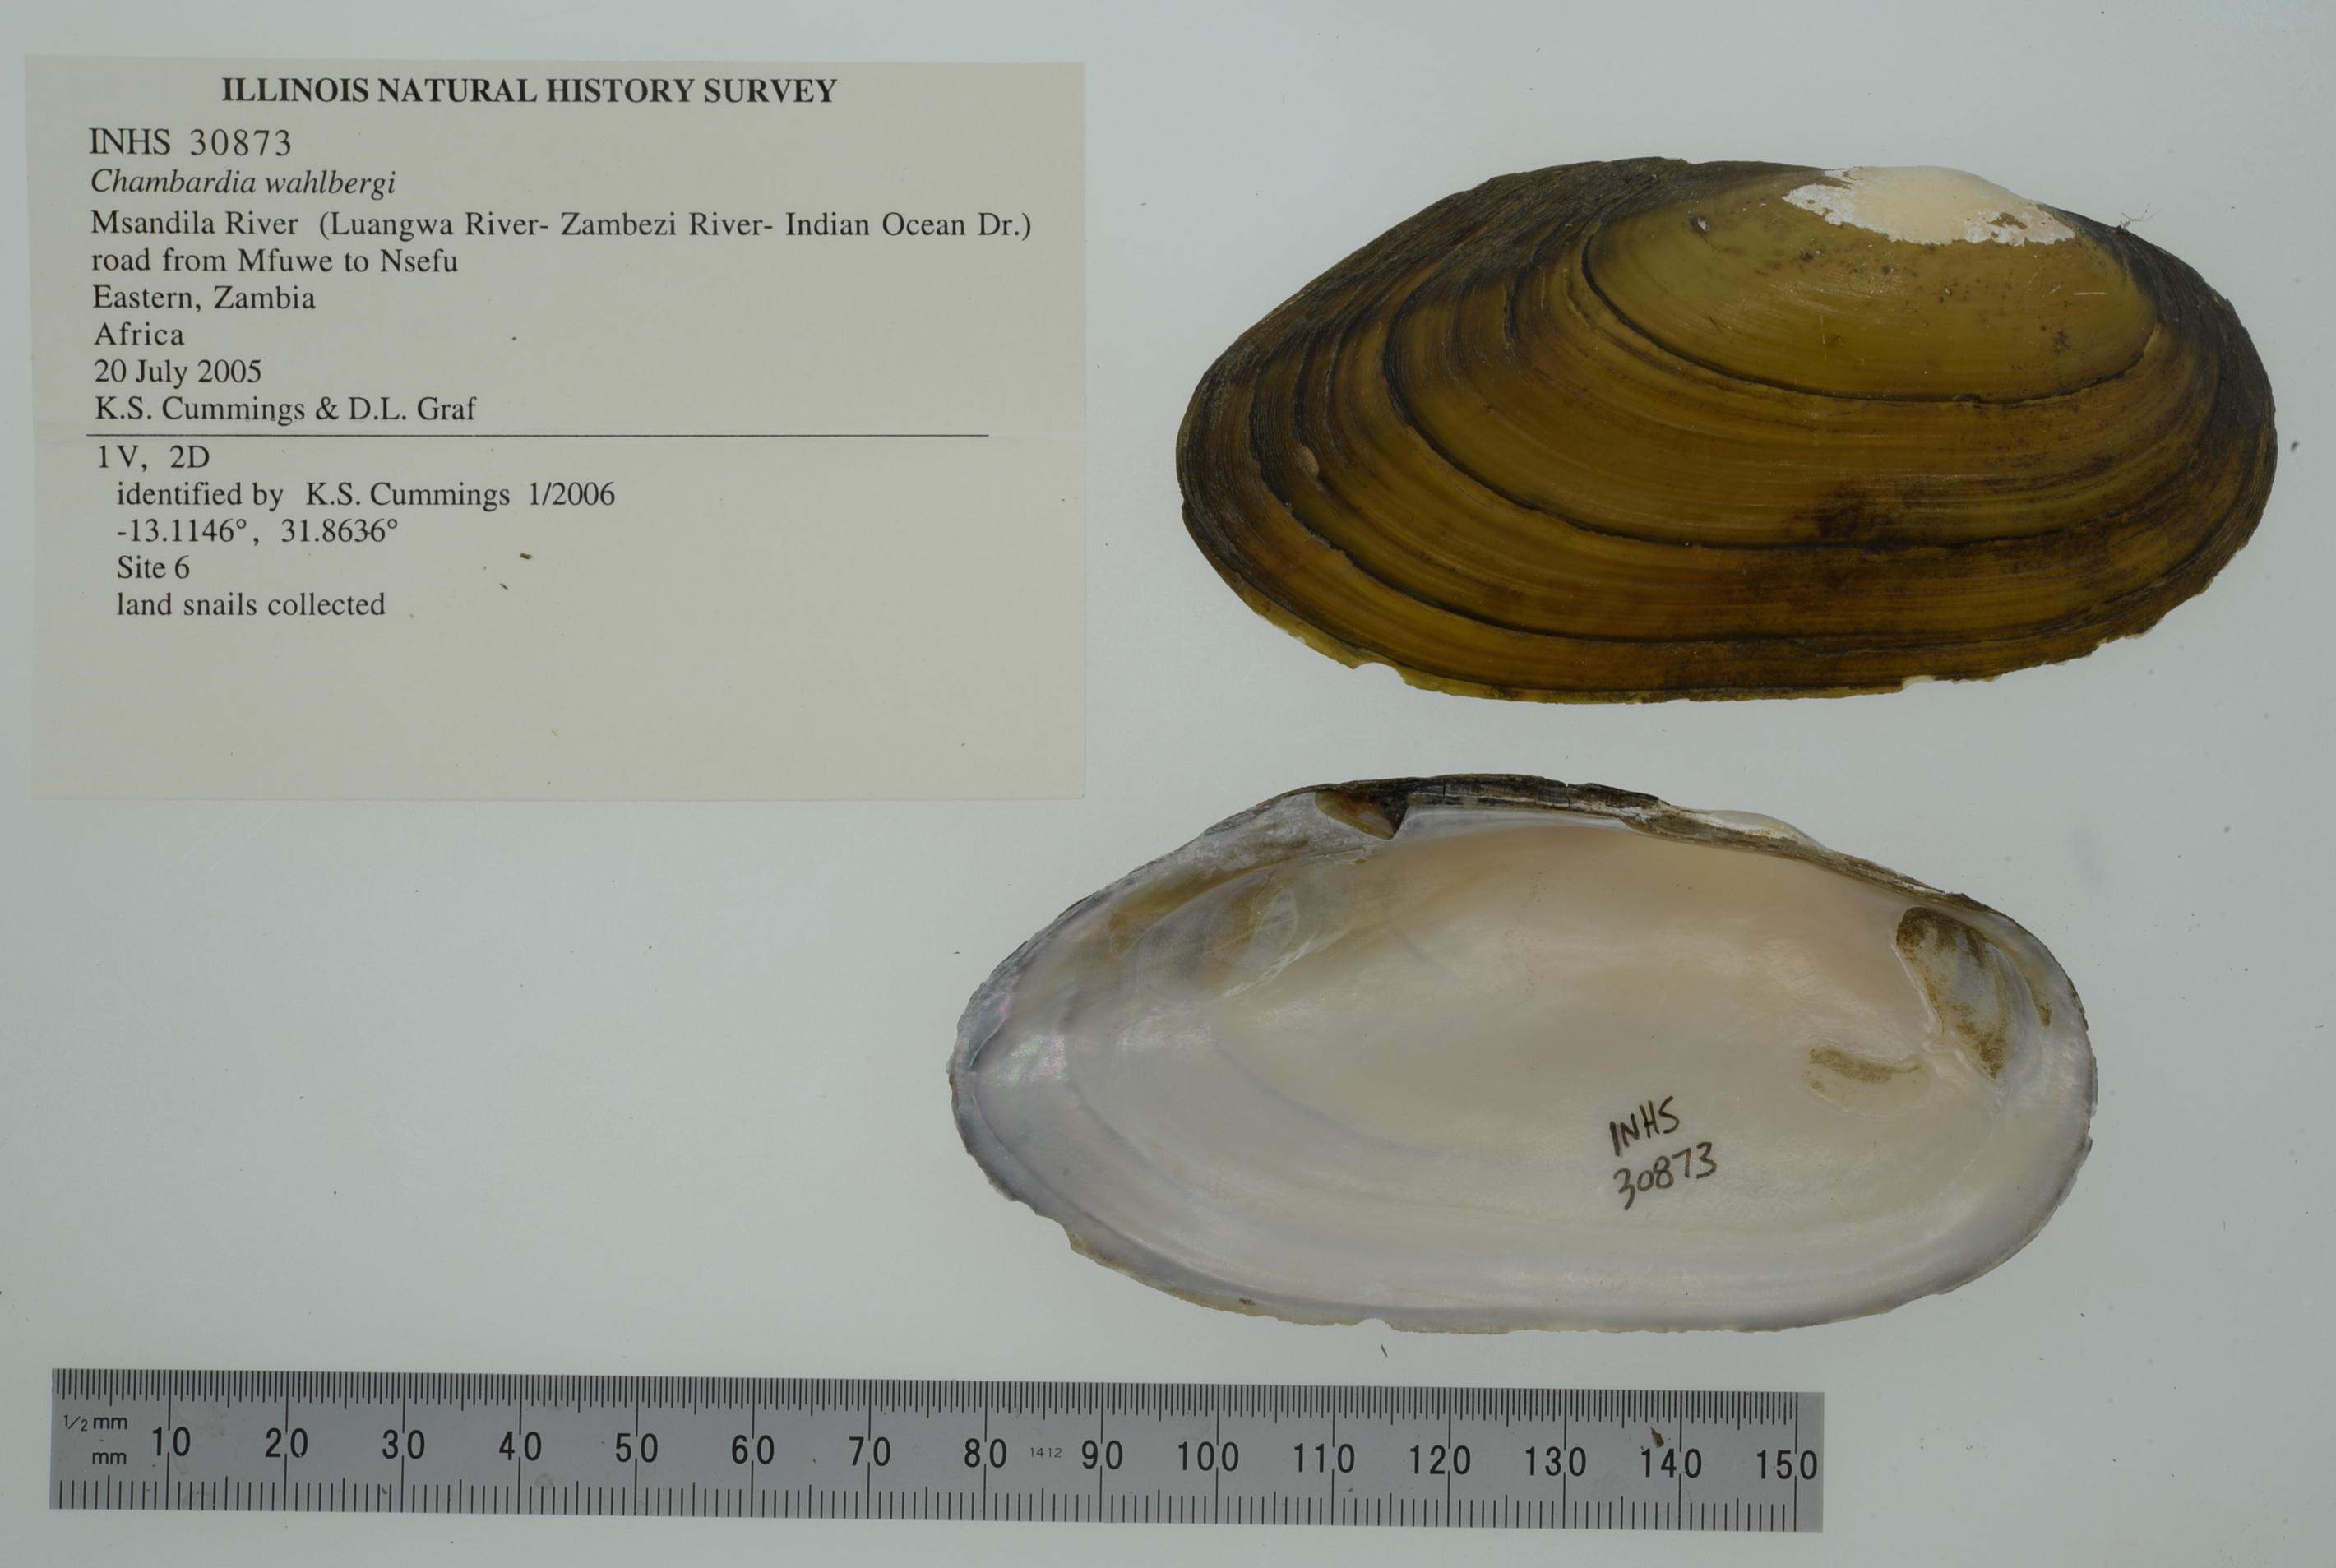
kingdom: Animalia
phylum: Mollusca
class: Bivalvia
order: Unionida
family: Iridinidae
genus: Chambardia
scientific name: Chambardia wahlbergi
